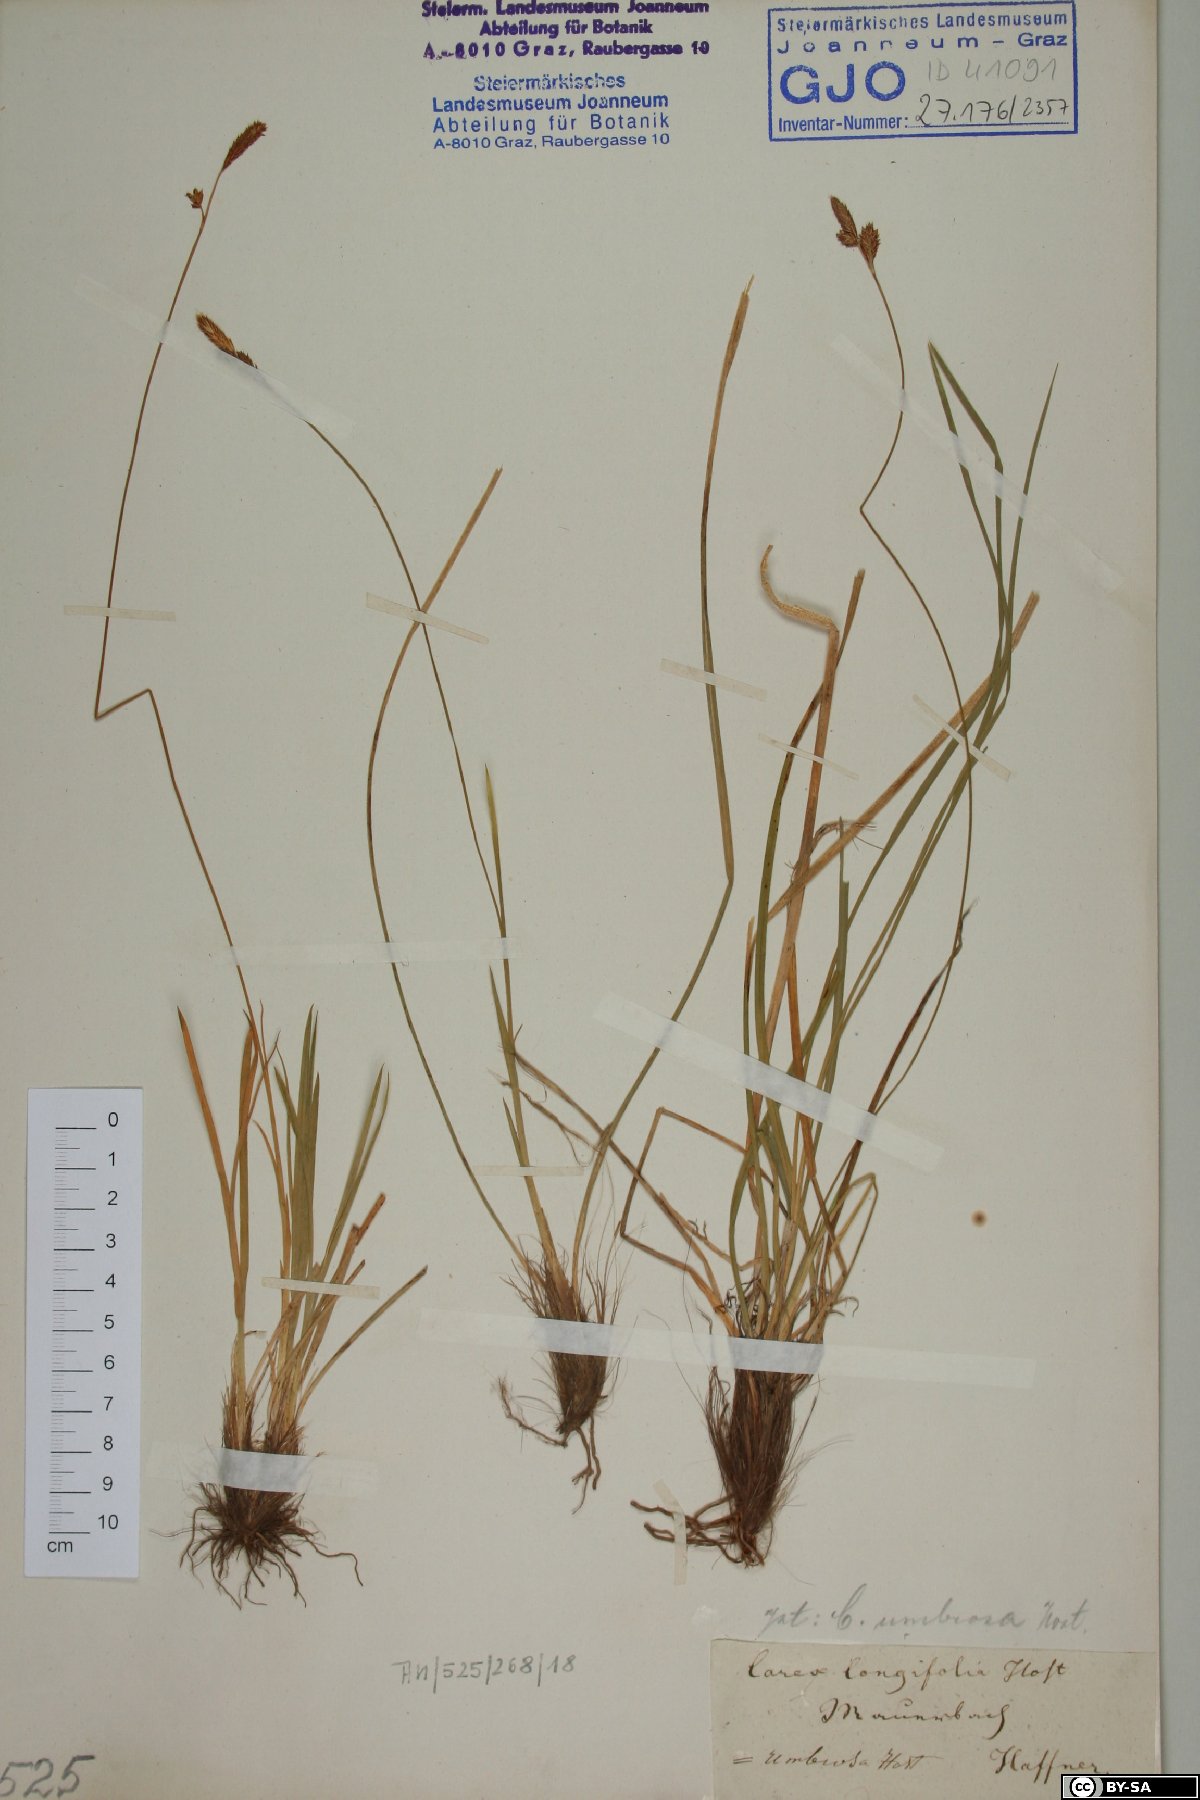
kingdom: Plantae
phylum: Tracheophyta
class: Liliopsida
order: Poales
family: Cyperaceae
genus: Carex
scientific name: Carex umbrosa
